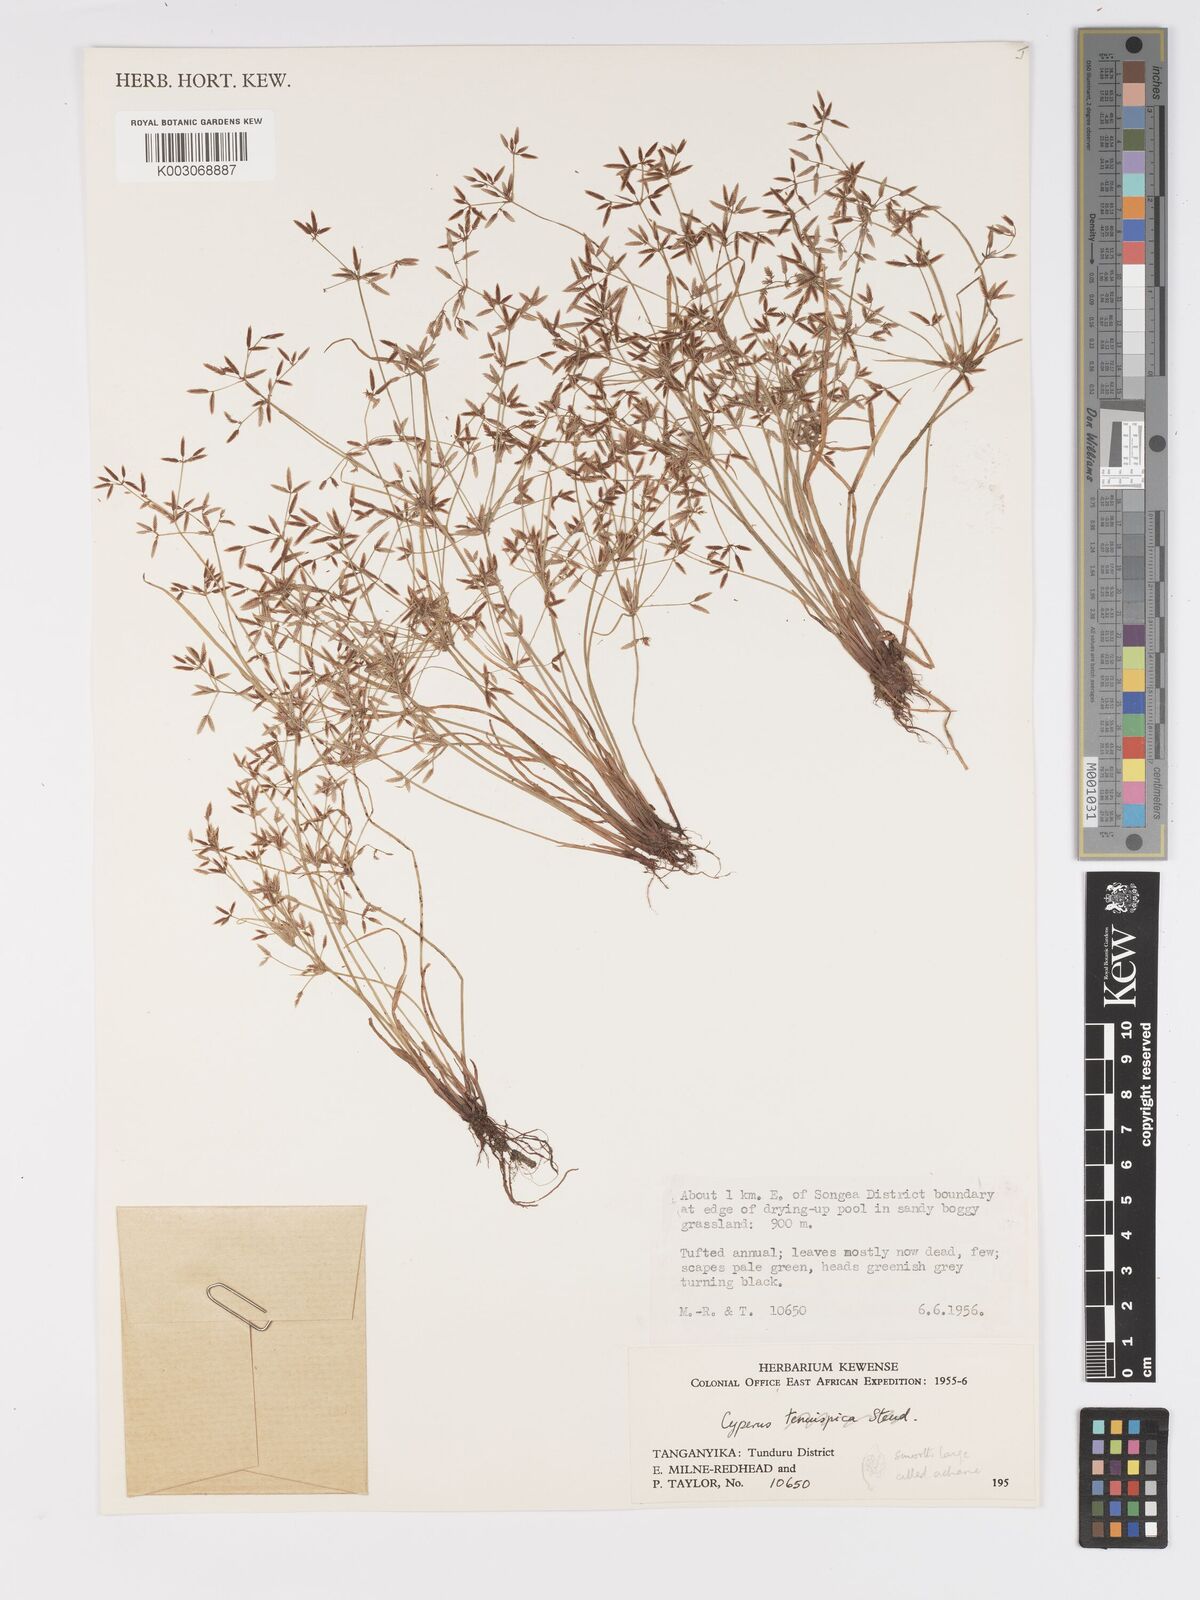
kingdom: Plantae
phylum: Tracheophyta
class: Liliopsida
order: Poales
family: Cyperaceae
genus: Cyperus
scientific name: Cyperus tenuispica
